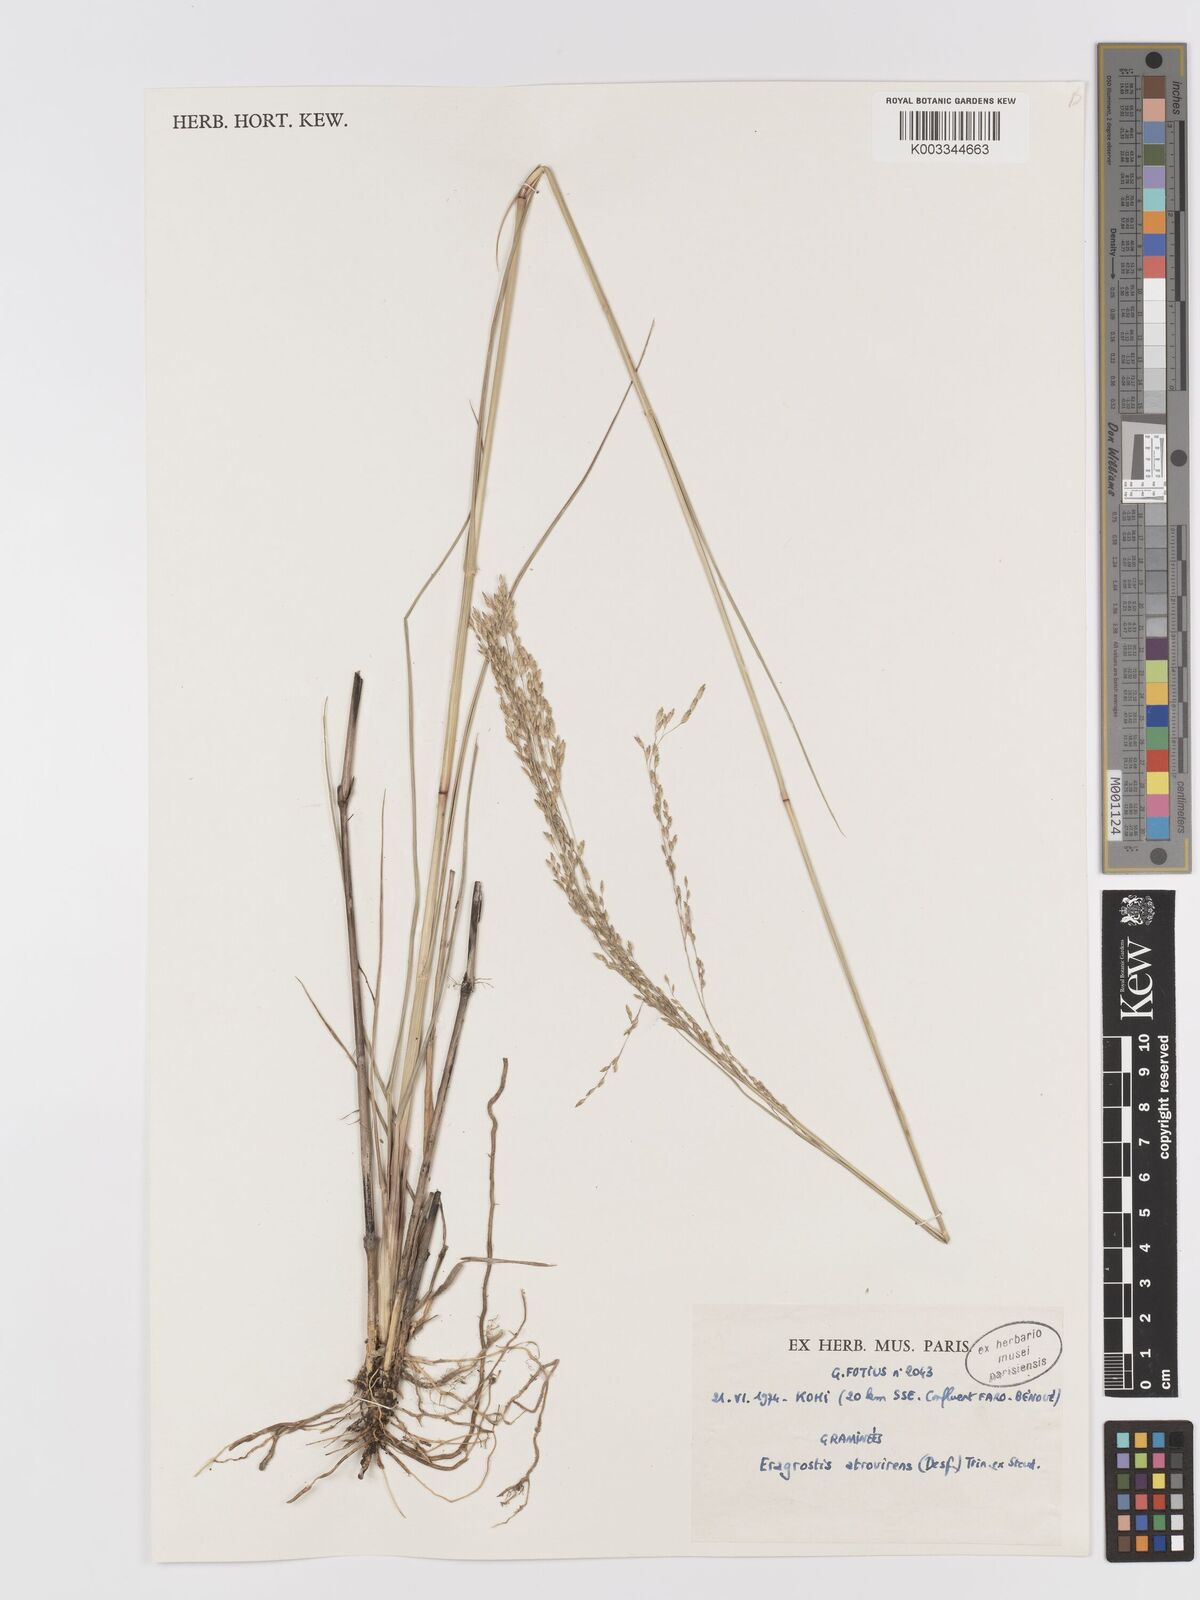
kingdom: Plantae
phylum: Tracheophyta
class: Liliopsida
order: Poales
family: Poaceae
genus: Eragrostis
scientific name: Eragrostis atrovirens
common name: Thalia lovegrass
